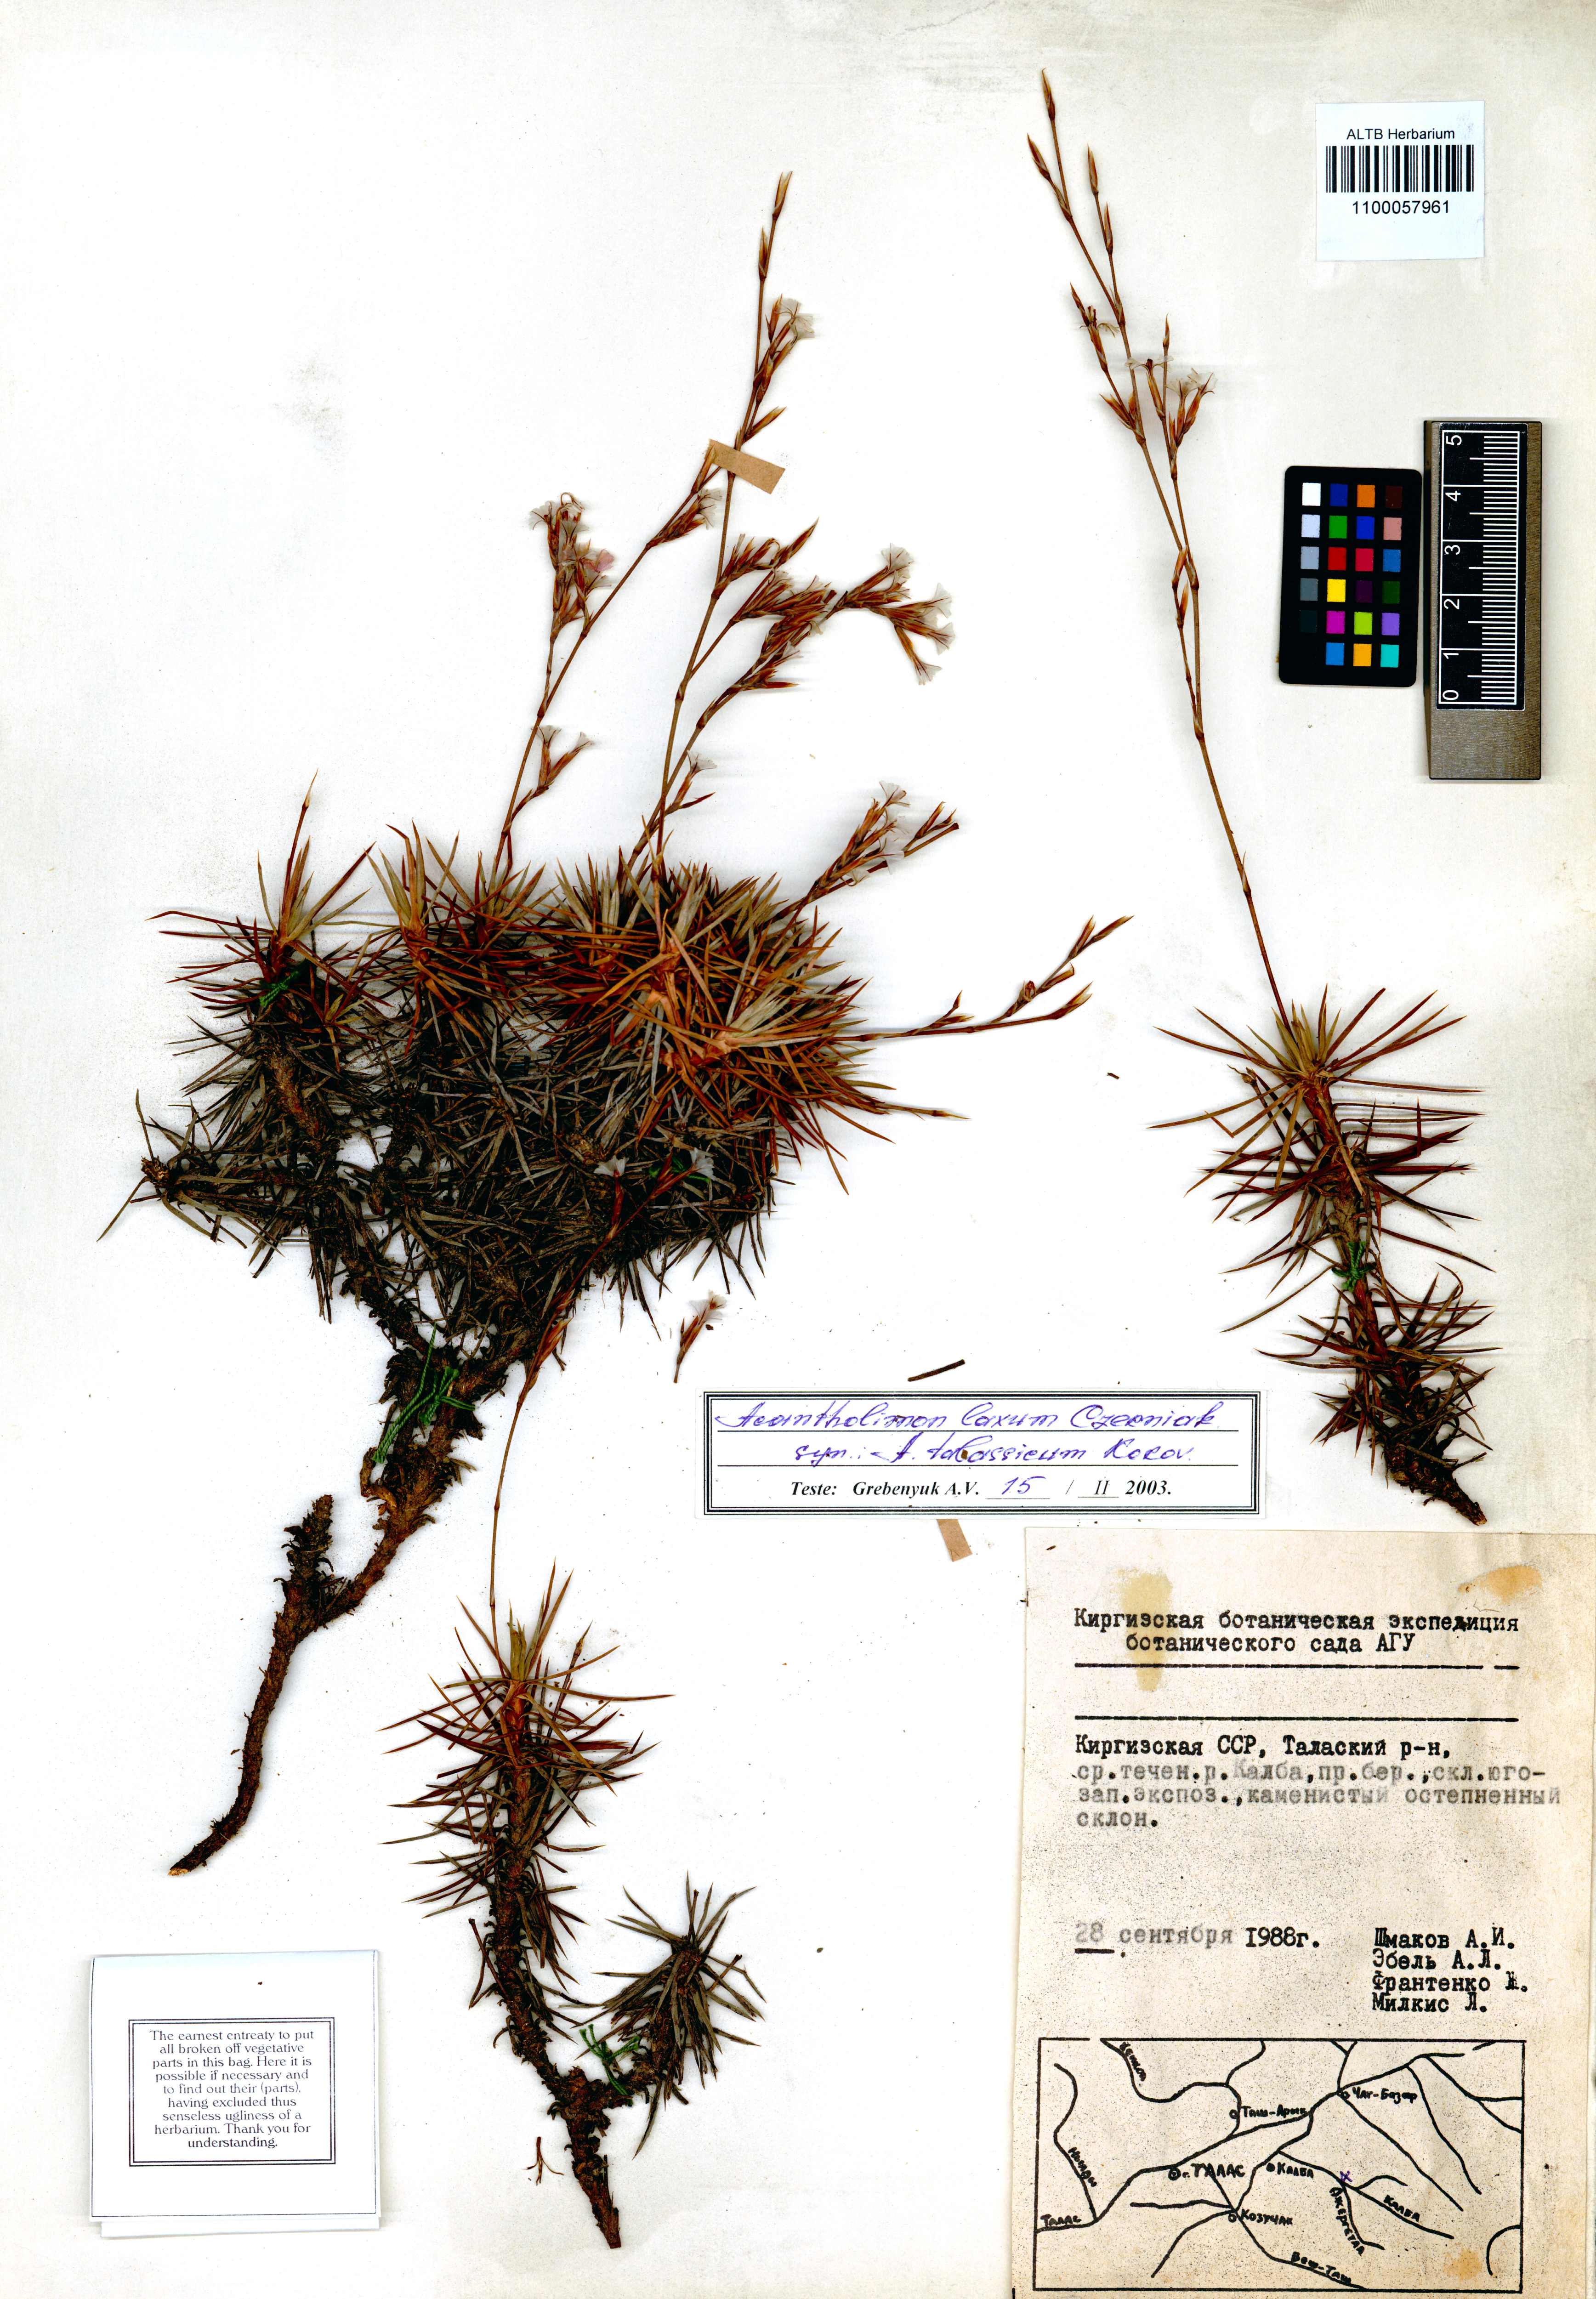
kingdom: Plantae
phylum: Tracheophyta
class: Magnoliopsida
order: Caryophyllales
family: Plumbaginaceae
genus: Acantholimon
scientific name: Acantholimon laxum
